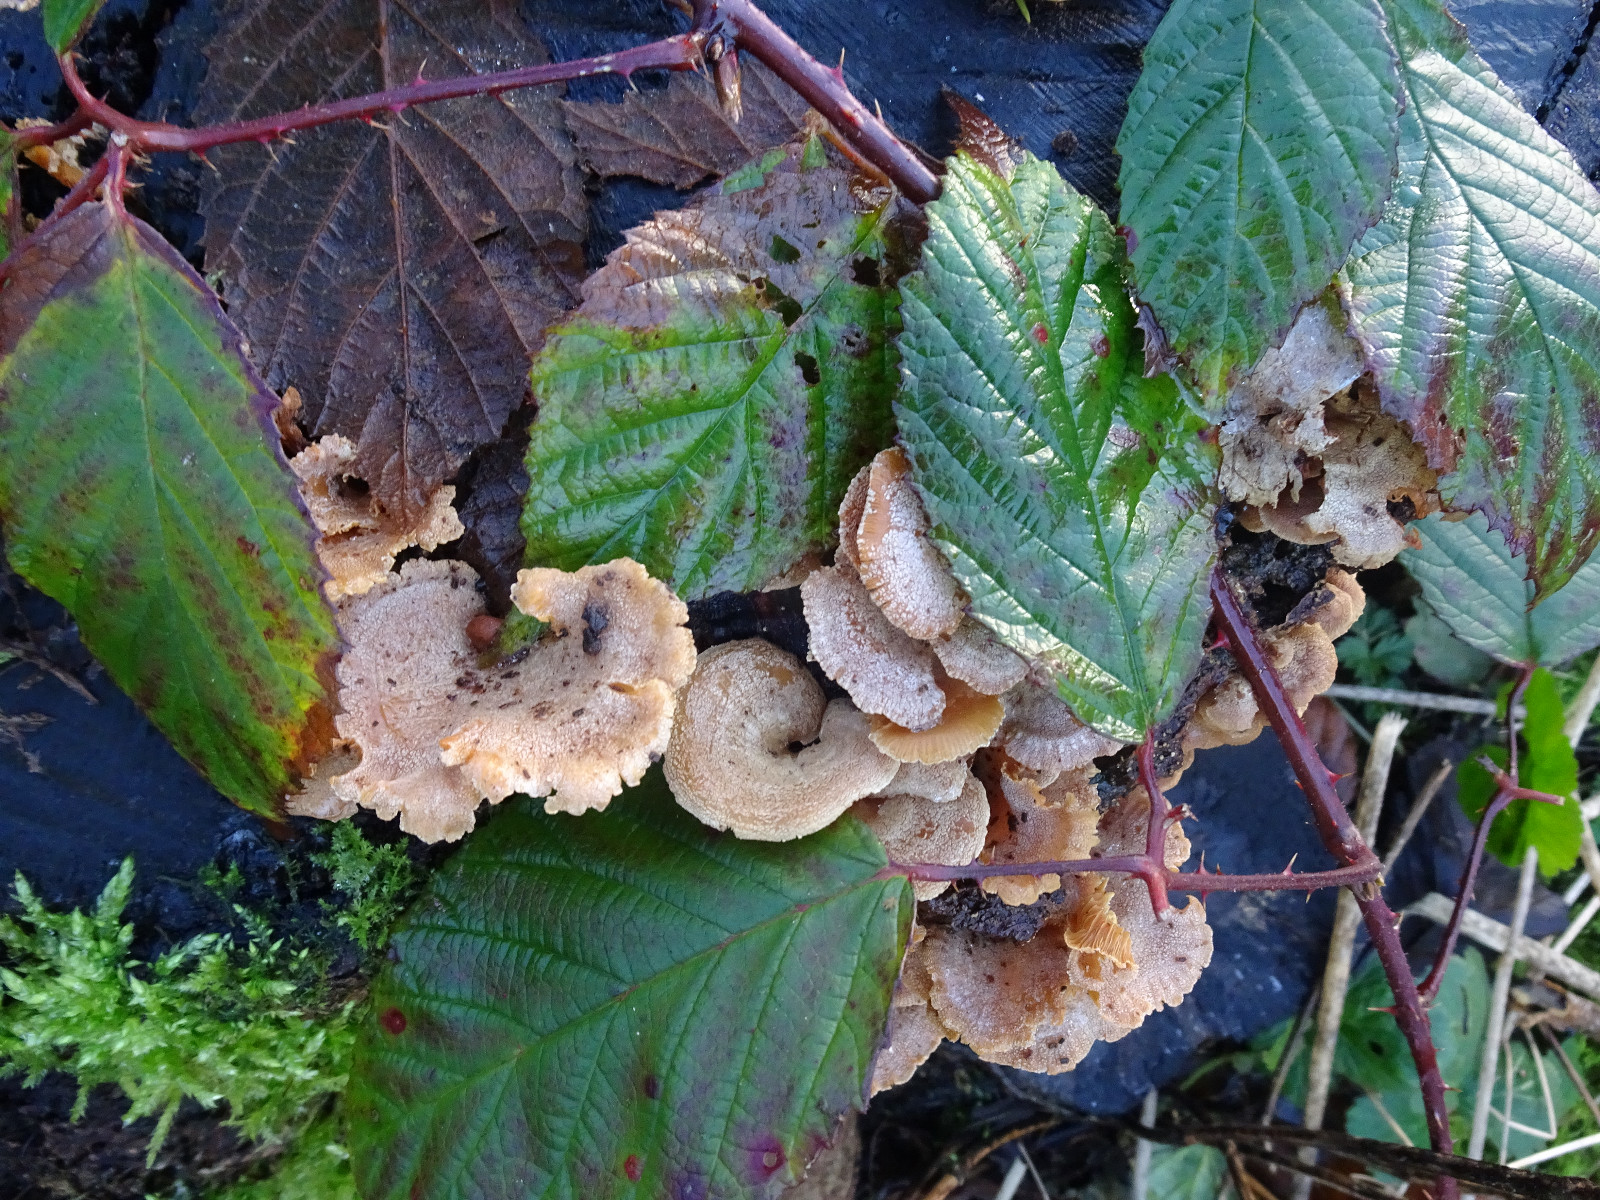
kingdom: Fungi
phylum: Basidiomycota
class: Agaricomycetes
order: Agaricales
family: Mycenaceae
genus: Panellus
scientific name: Panellus stipticus
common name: kliddet epaulethat
